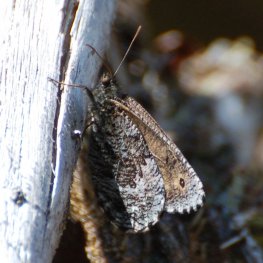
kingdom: Animalia
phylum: Arthropoda
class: Insecta
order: Lepidoptera
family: Nymphalidae
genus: Oeneis
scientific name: Oeneis jutta
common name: Jutta Arctic
